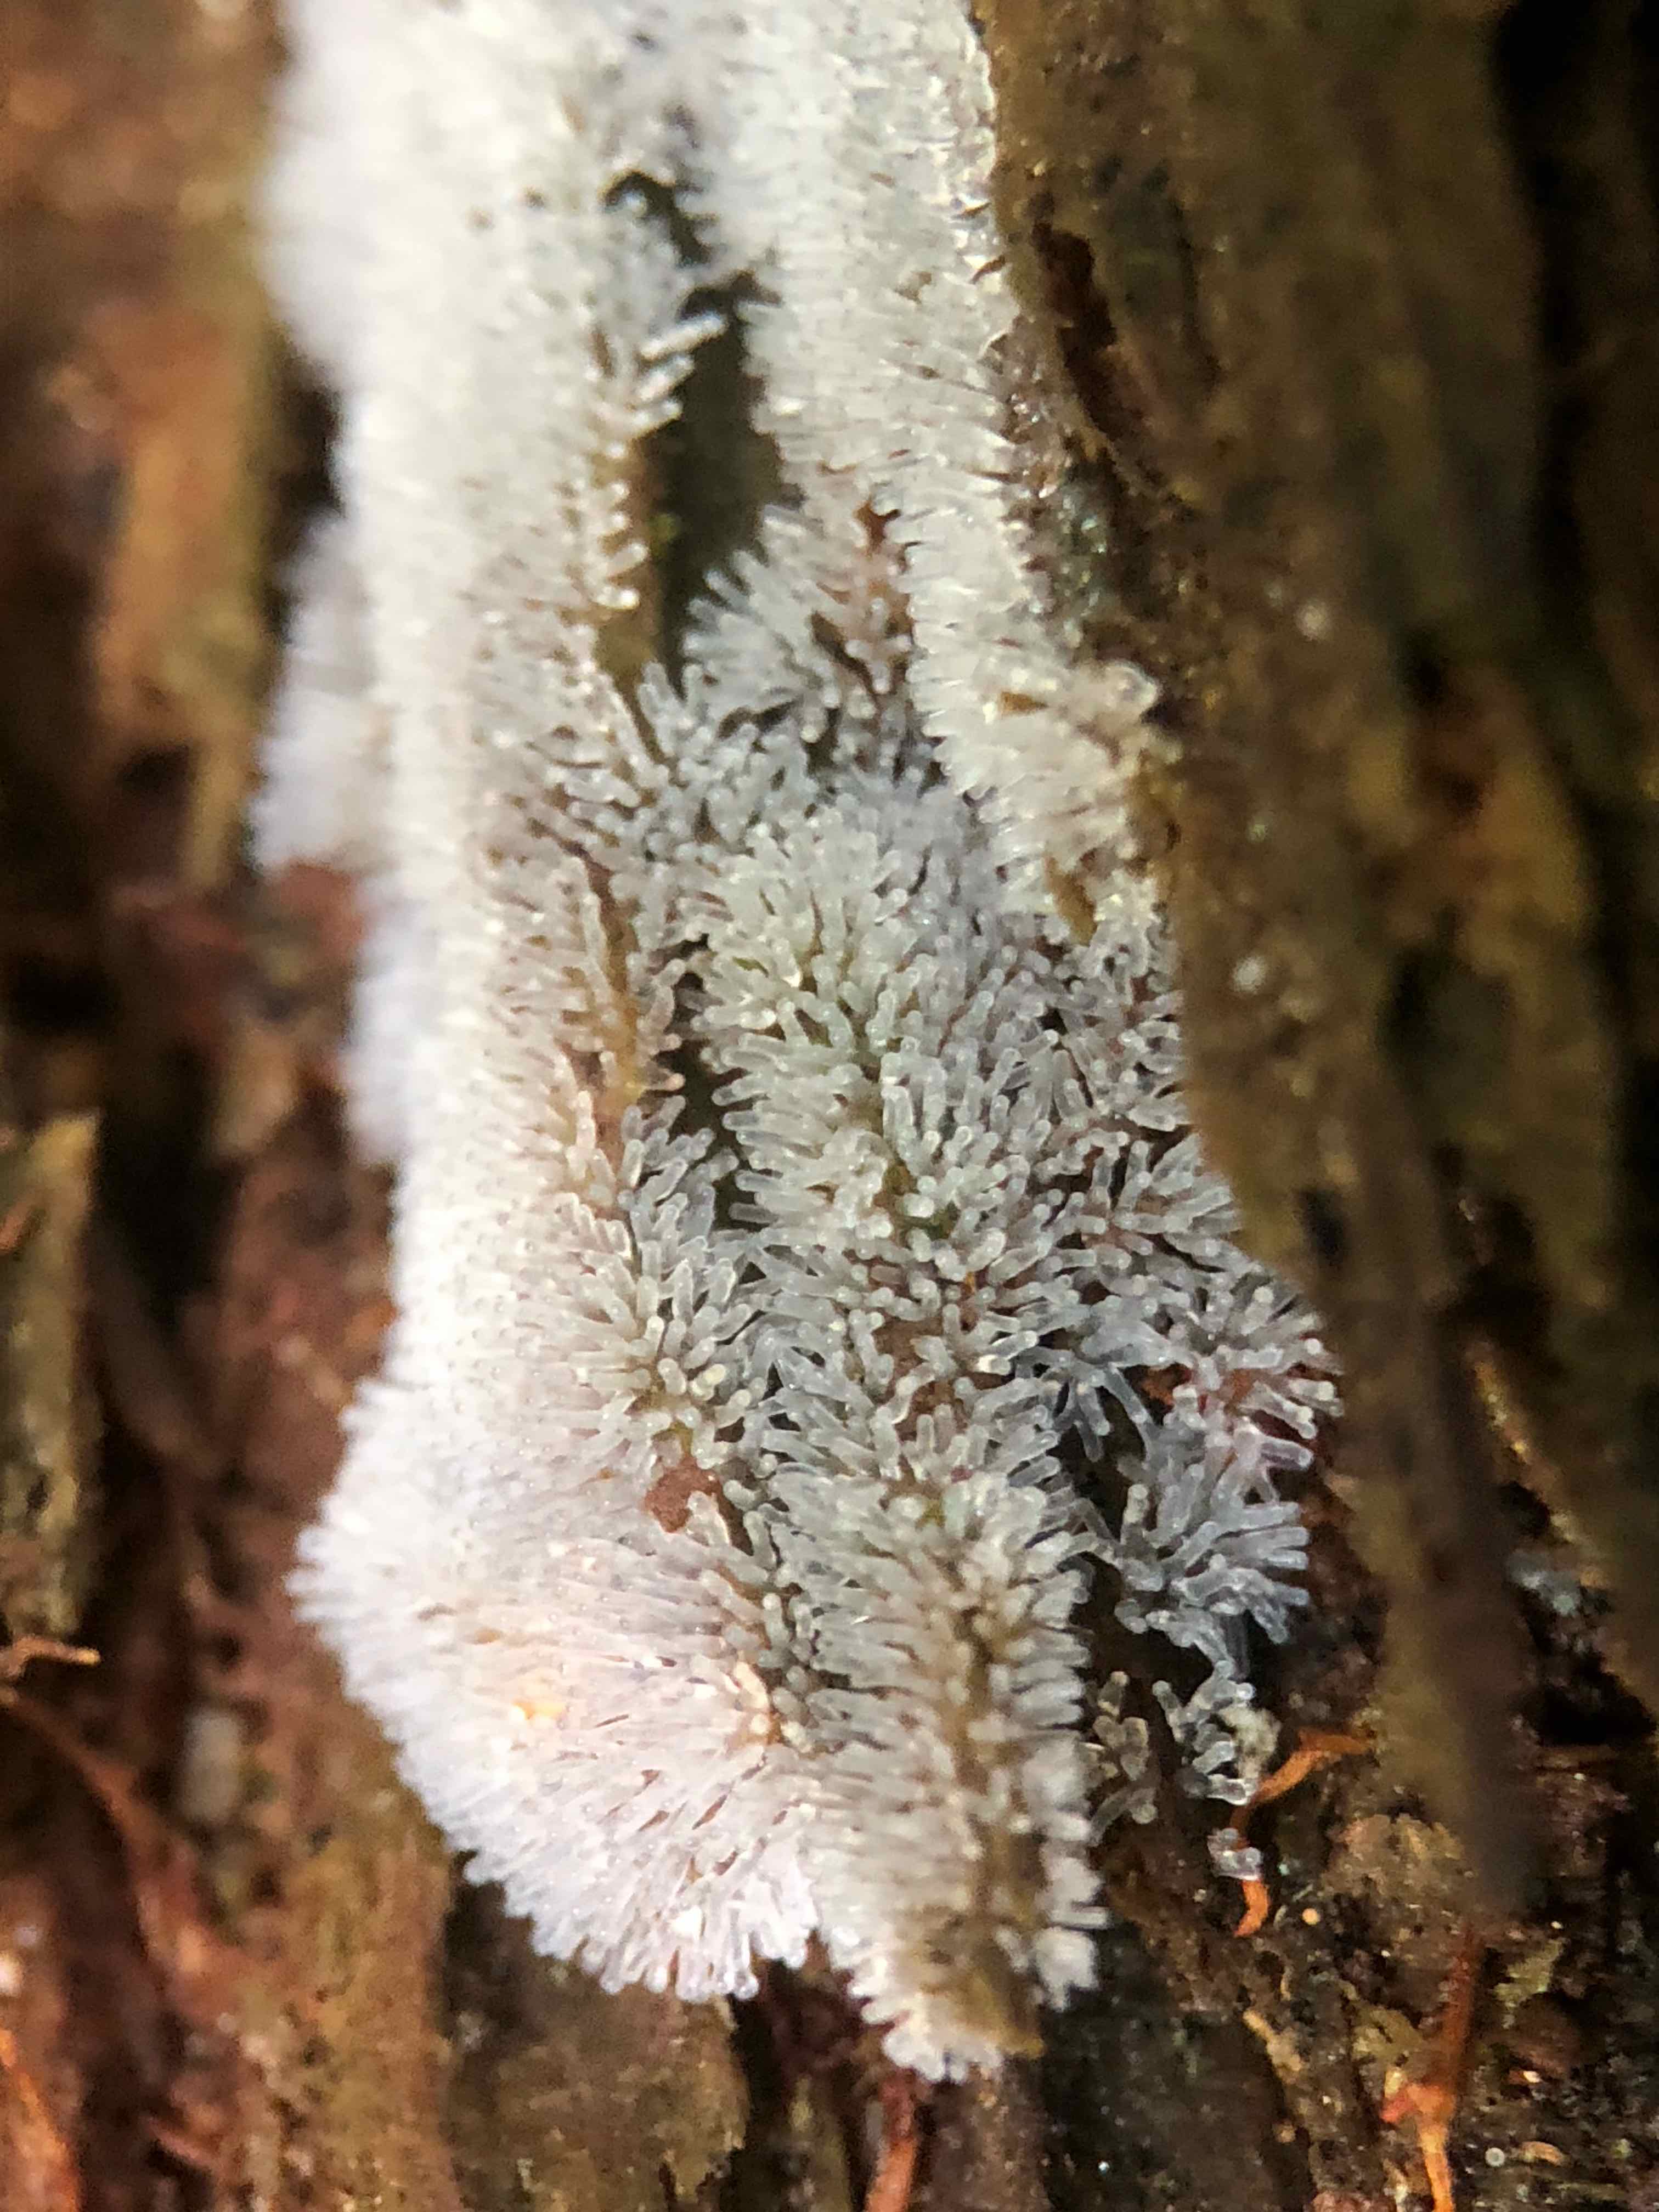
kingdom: Protozoa
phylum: Mycetozoa
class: Protosteliomycetes
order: Ceratiomyxales
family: Ceratiomyxaceae
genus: Ceratiomyxa
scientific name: Ceratiomyxa fruticulosa
